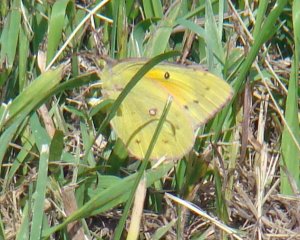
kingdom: Animalia
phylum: Arthropoda
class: Insecta
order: Lepidoptera
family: Pieridae
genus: Colias
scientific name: Colias eurytheme
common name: Orange Sulphur
